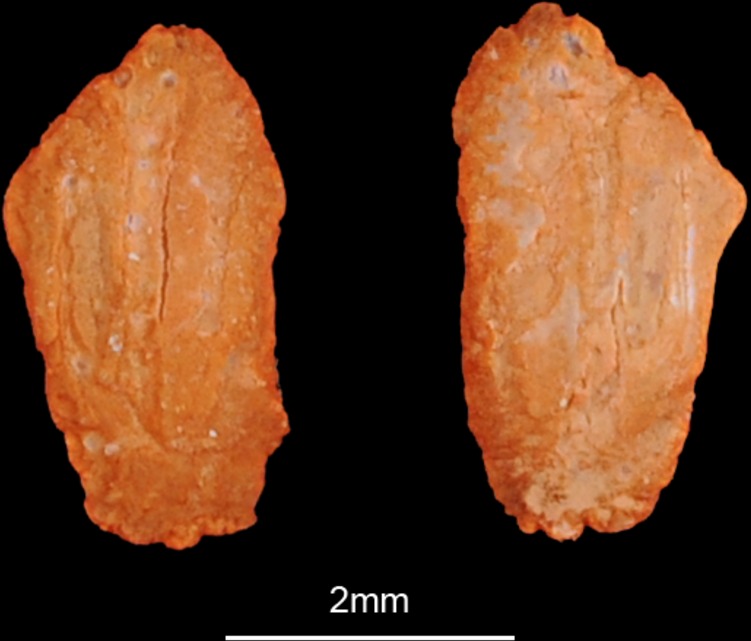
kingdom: Animalia
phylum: Chordata
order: Mugiliformes
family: Mugilidae
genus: Planiliza
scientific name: Planiliza abu
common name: Abu mullet
